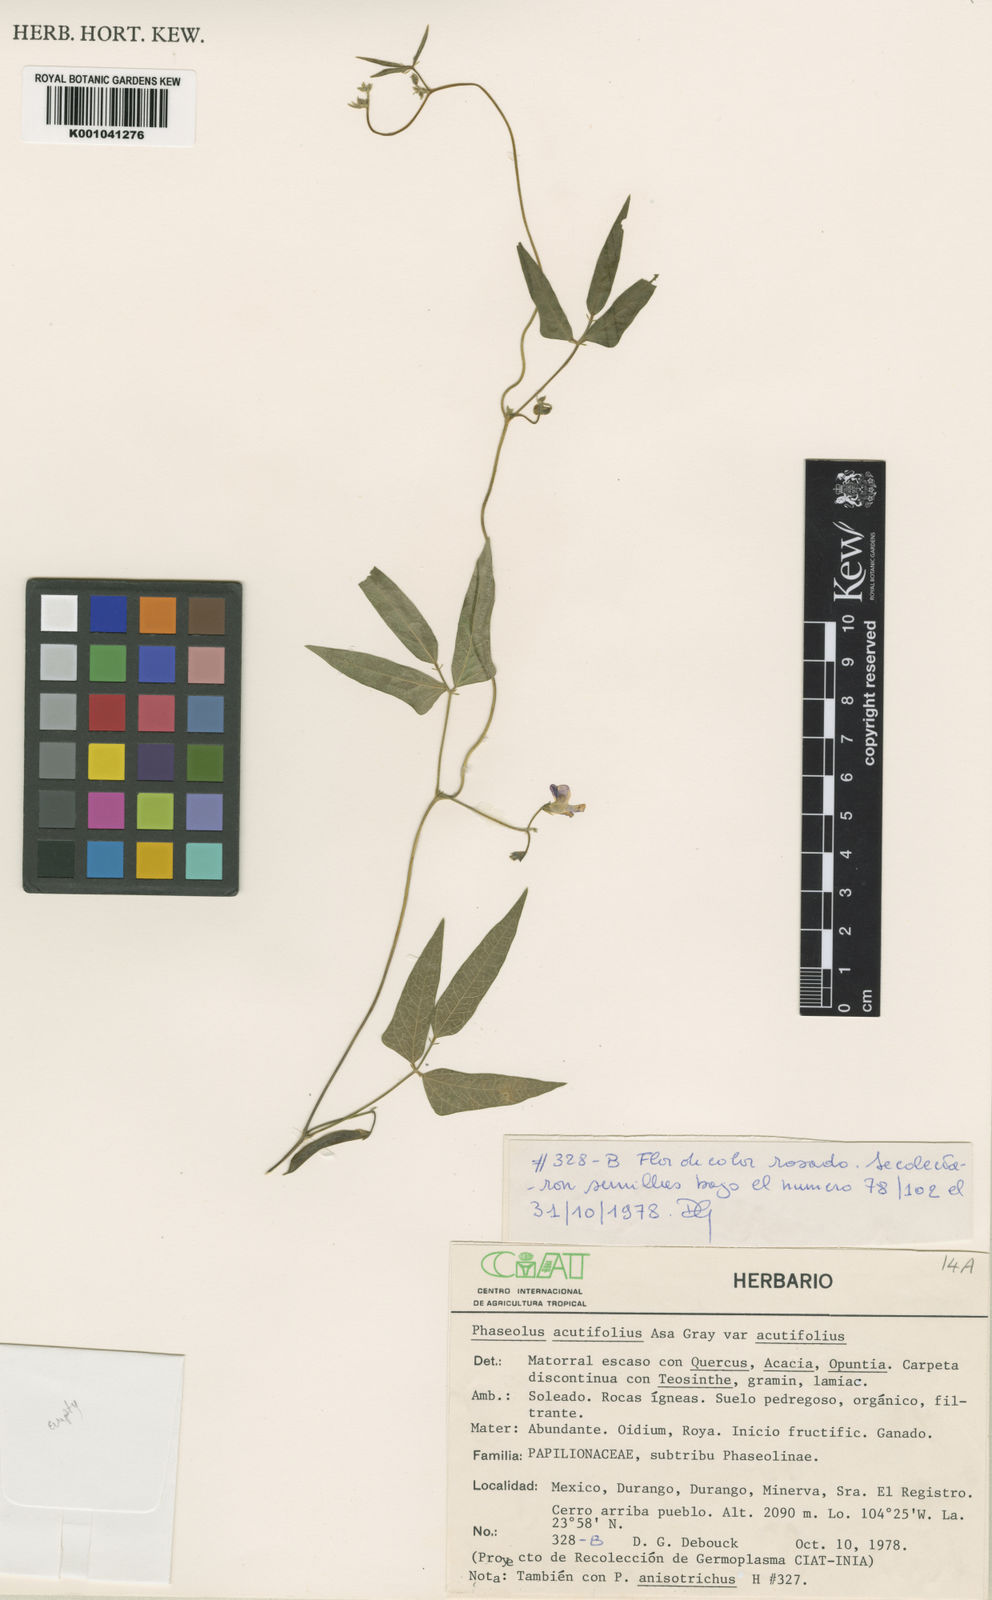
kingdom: Plantae
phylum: Tracheophyta
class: Magnoliopsida
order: Fabales
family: Fabaceae
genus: Phaseolus
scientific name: Phaseolus acutifolius
